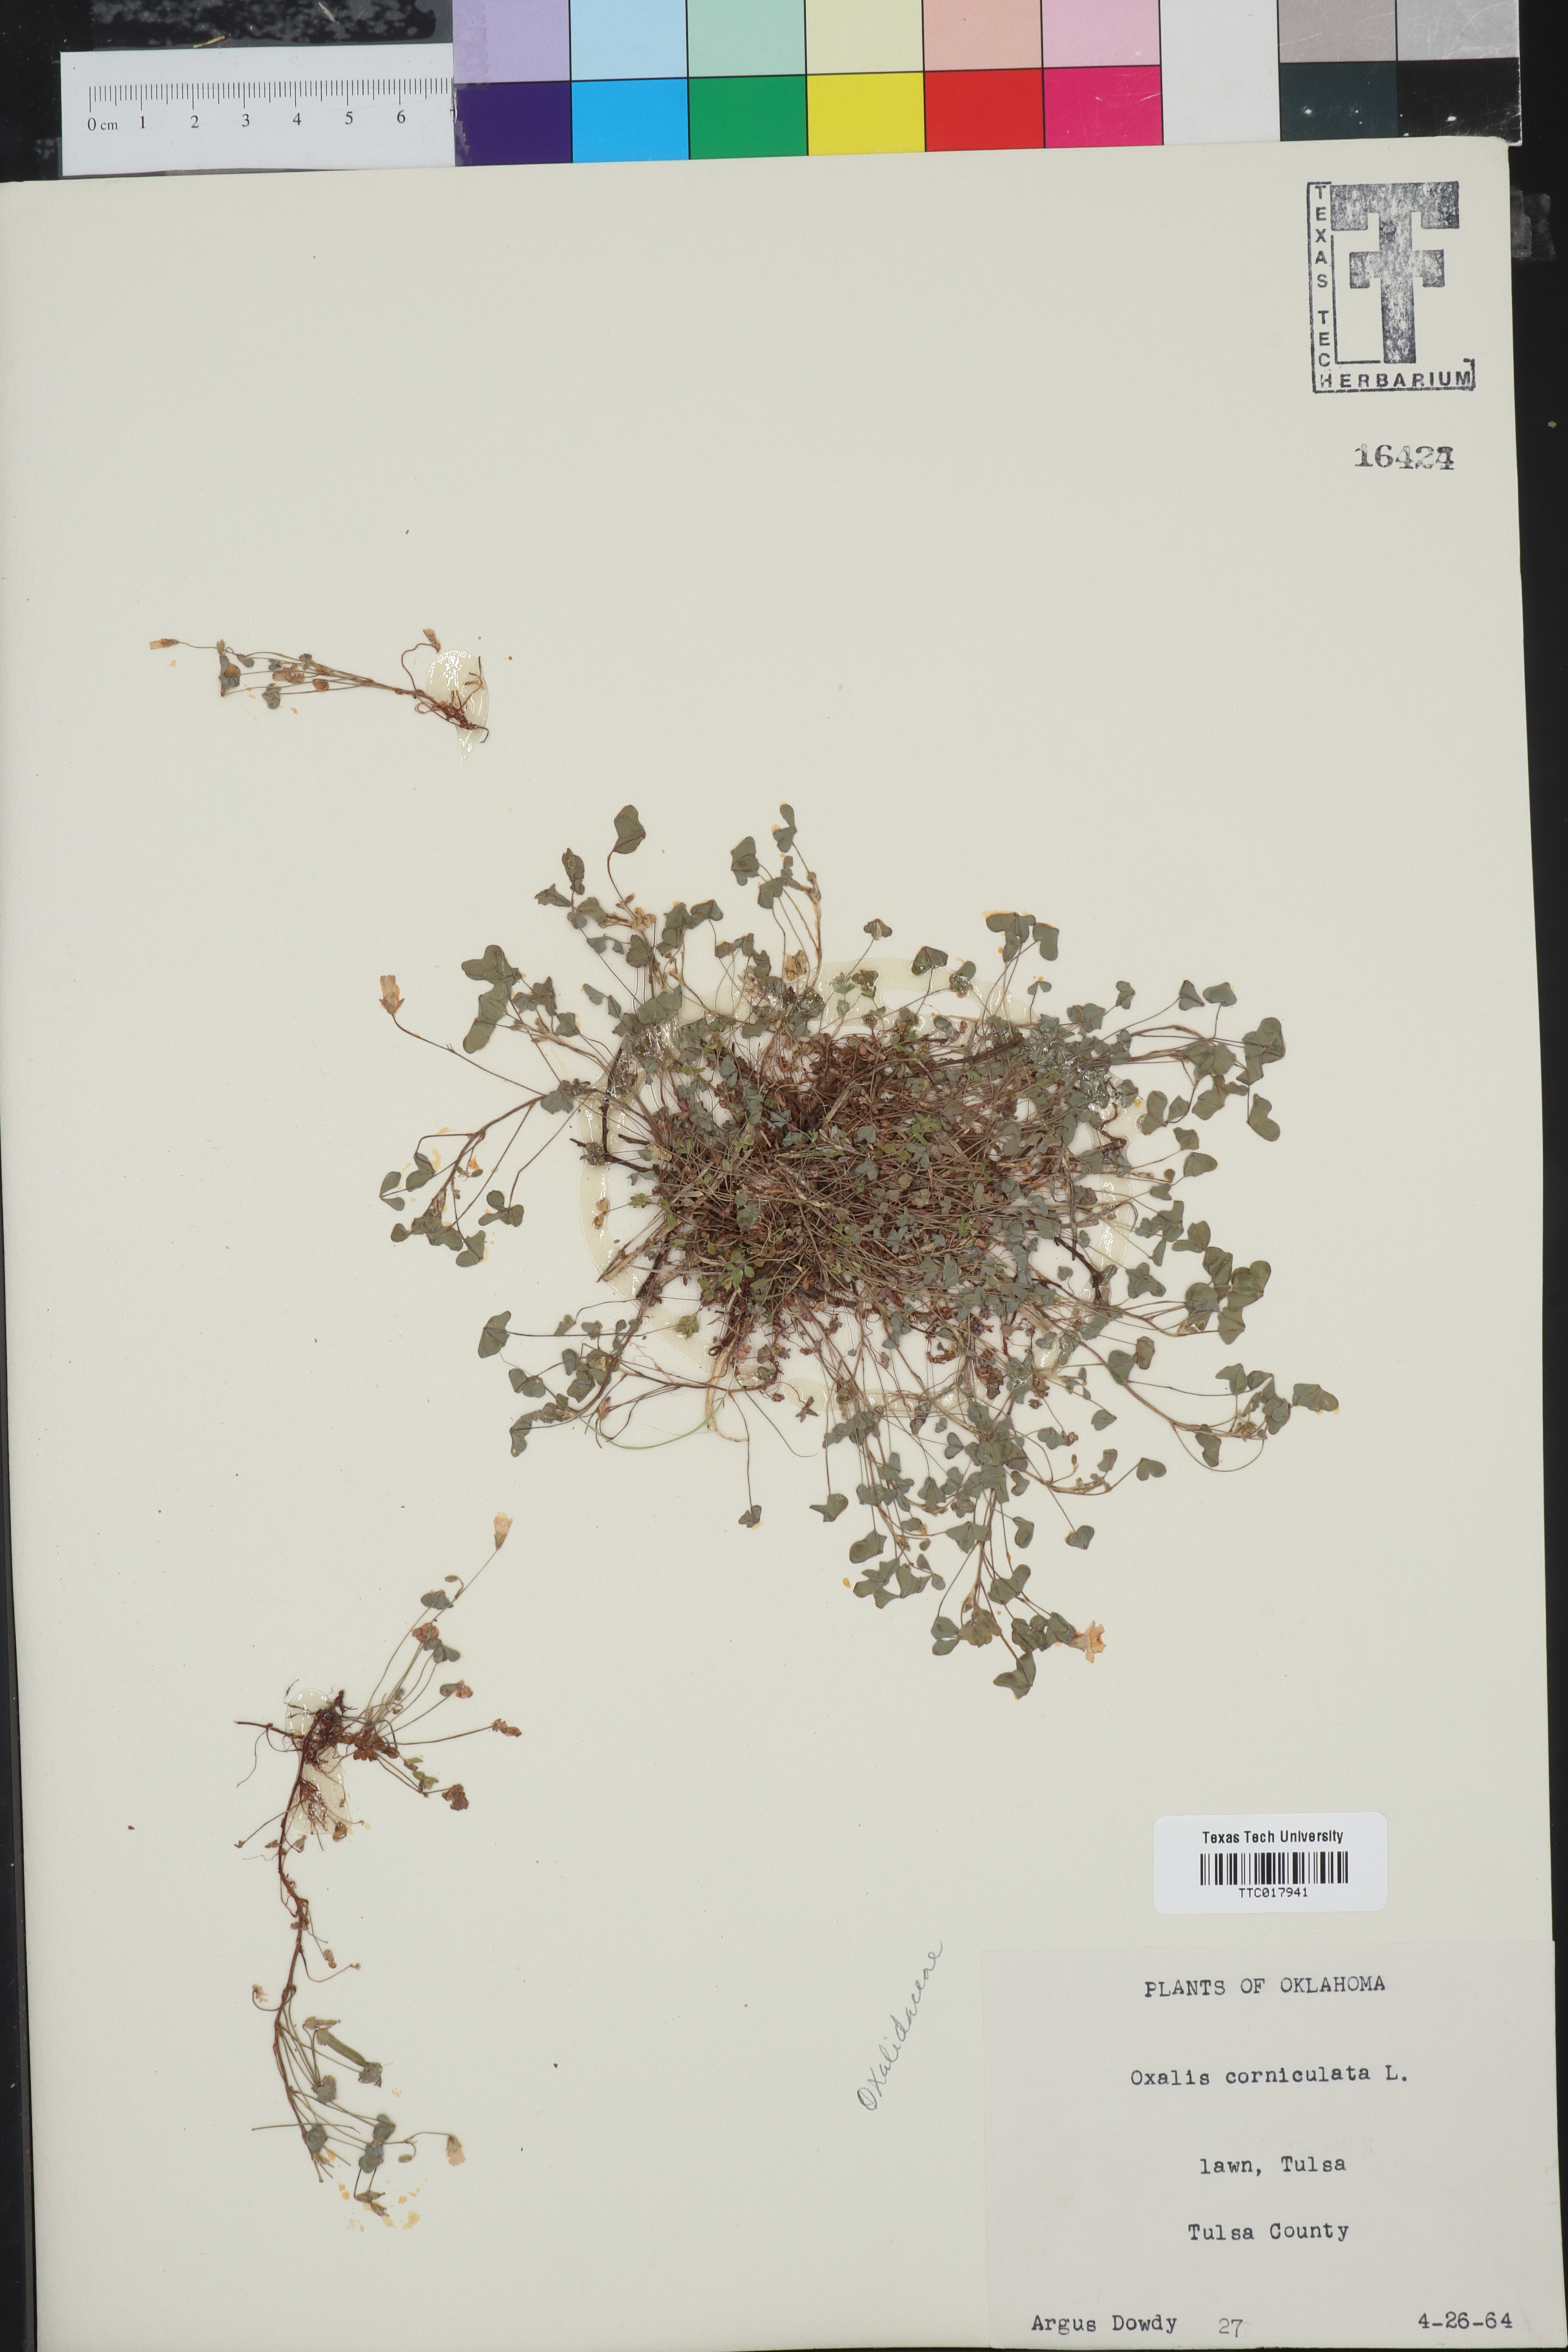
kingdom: Plantae
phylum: Tracheophyta
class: Magnoliopsida
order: Oxalidales
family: Oxalidaceae
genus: Oxalis
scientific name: Oxalis corniculata
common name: Procumbent yellow-sorrel
